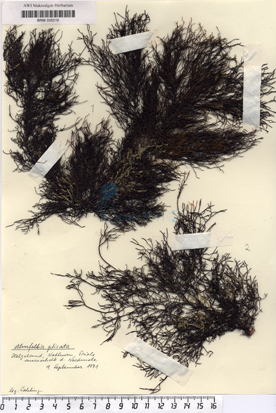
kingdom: Plantae
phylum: Rhodophyta
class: Florideophyceae
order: Ahnfeltiales
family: Ahnfeltiaceae
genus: Ahnfeltia
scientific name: Ahnfeltia plicata
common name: Landlady's wig
